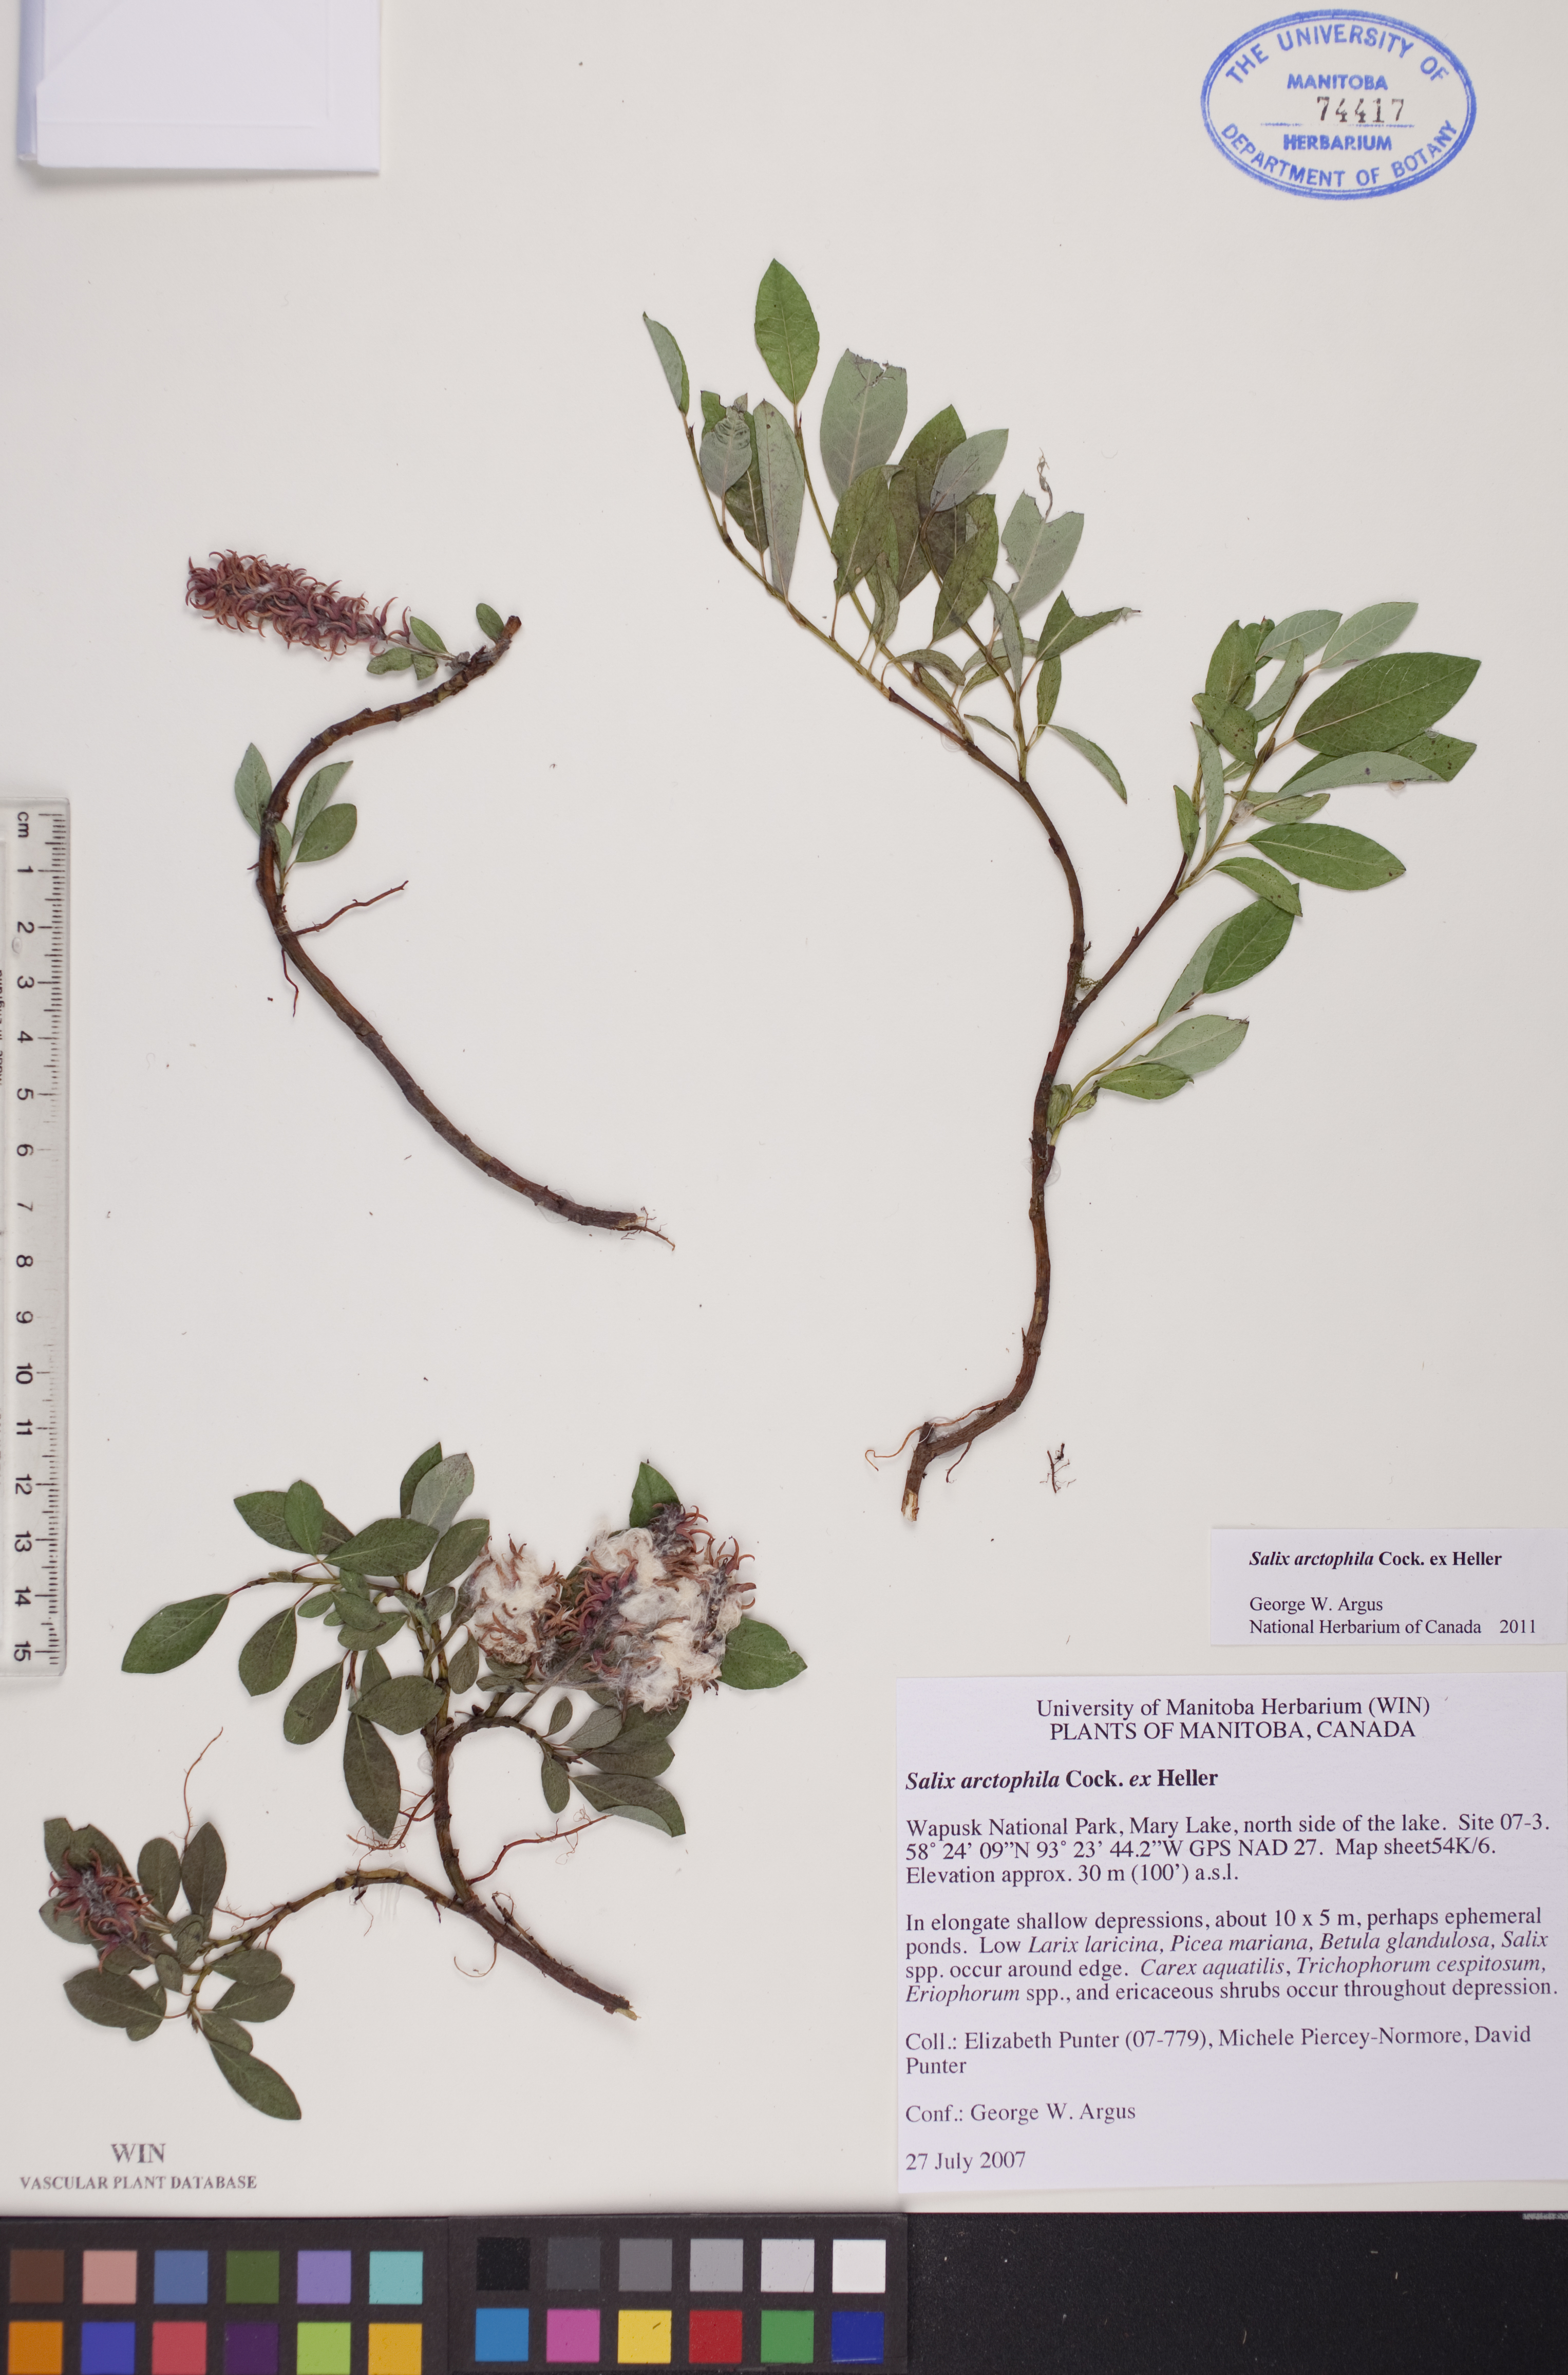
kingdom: Plantae
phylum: Tracheophyta
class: Magnoliopsida
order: Malpighiales
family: Salicaceae
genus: Salix
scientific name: Salix arctophila
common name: Greenland willow
